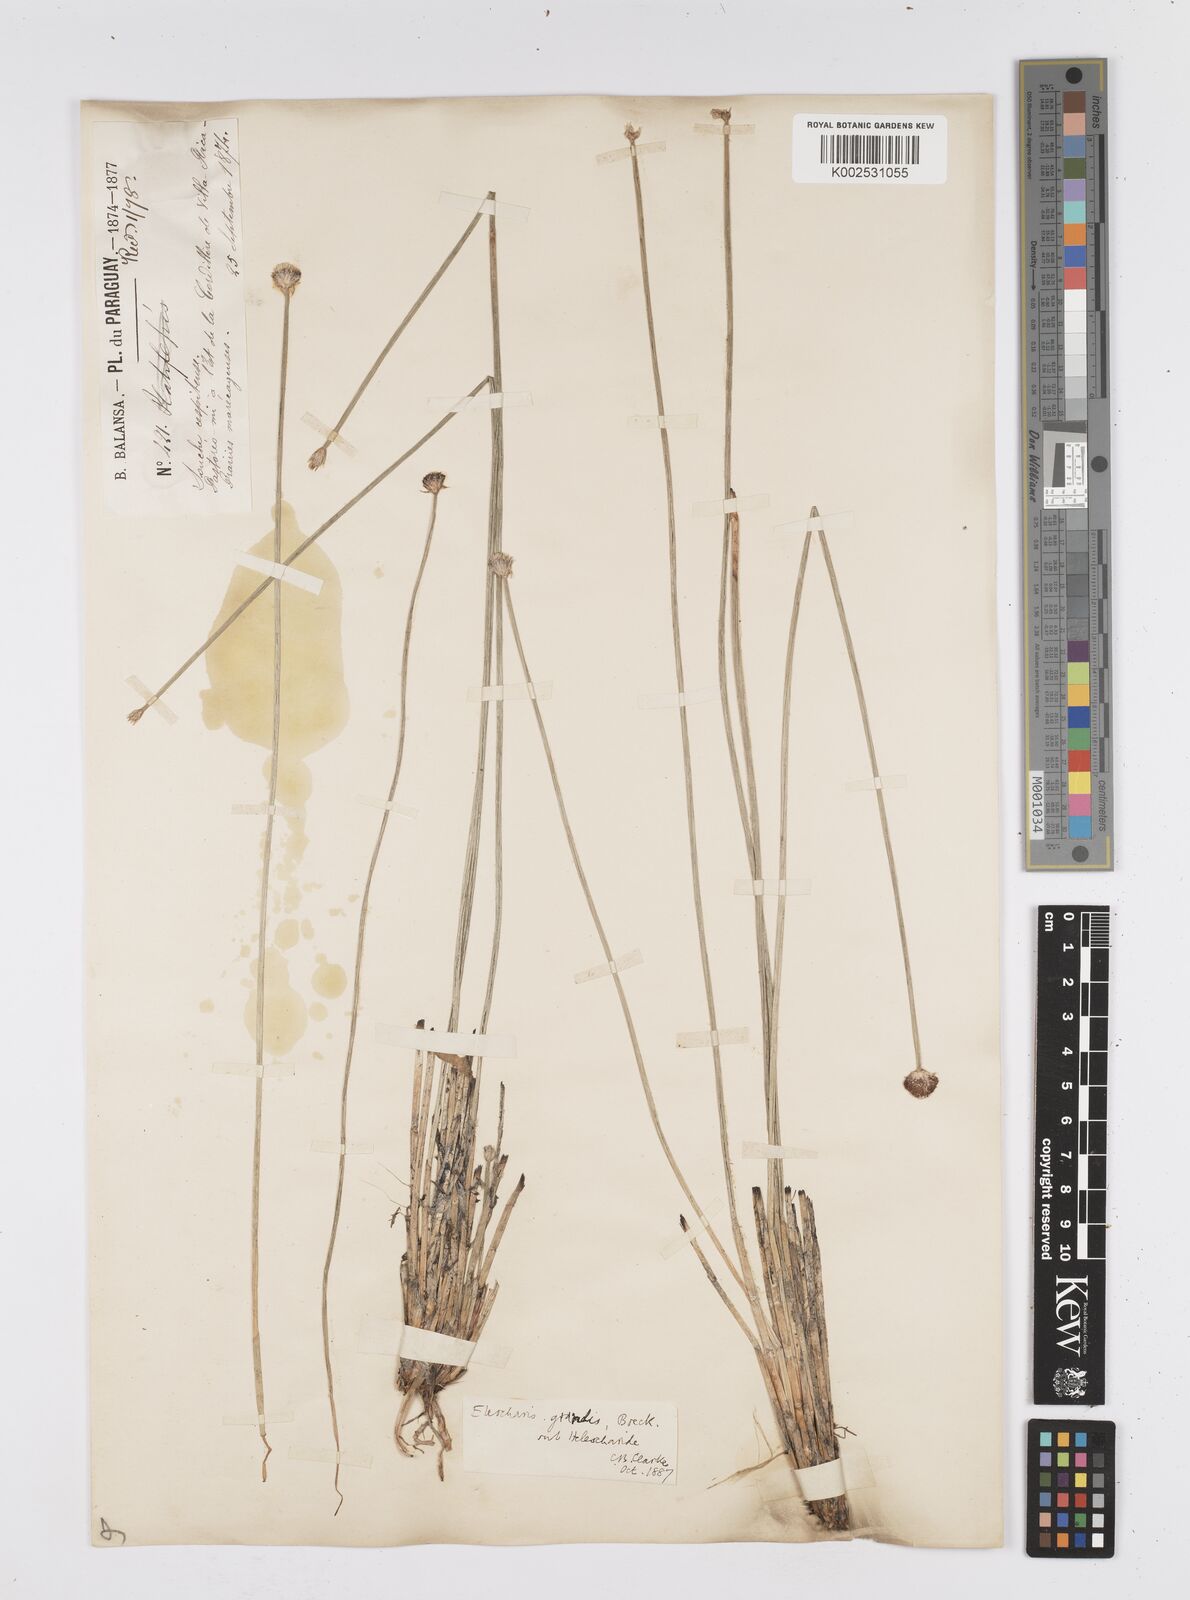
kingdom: Plantae
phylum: Tracheophyta
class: Liliopsida
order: Poales
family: Cyperaceae
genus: Eleocharis
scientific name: Eleocharis nudipes
